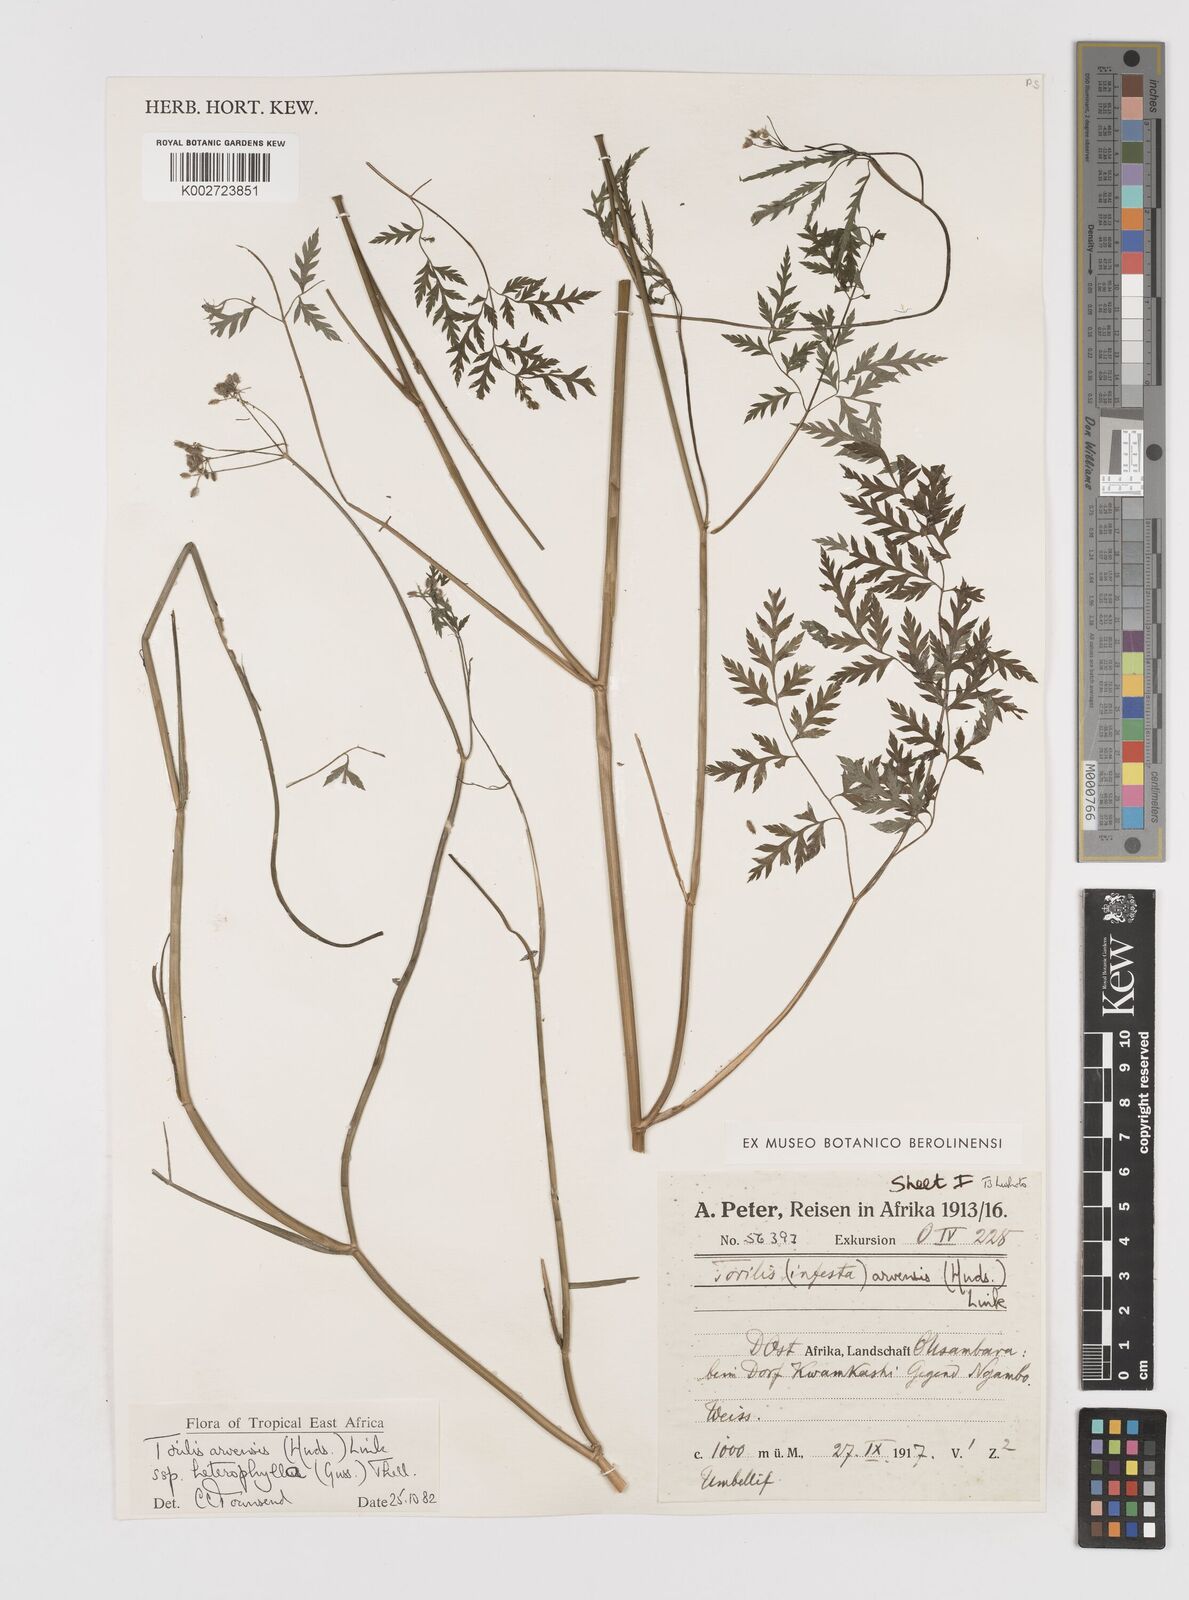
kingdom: Plantae
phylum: Tracheophyta
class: Magnoliopsida
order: Apiales
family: Apiaceae
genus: Torilis
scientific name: Torilis arvensis
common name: Spreading hedge-parsley
